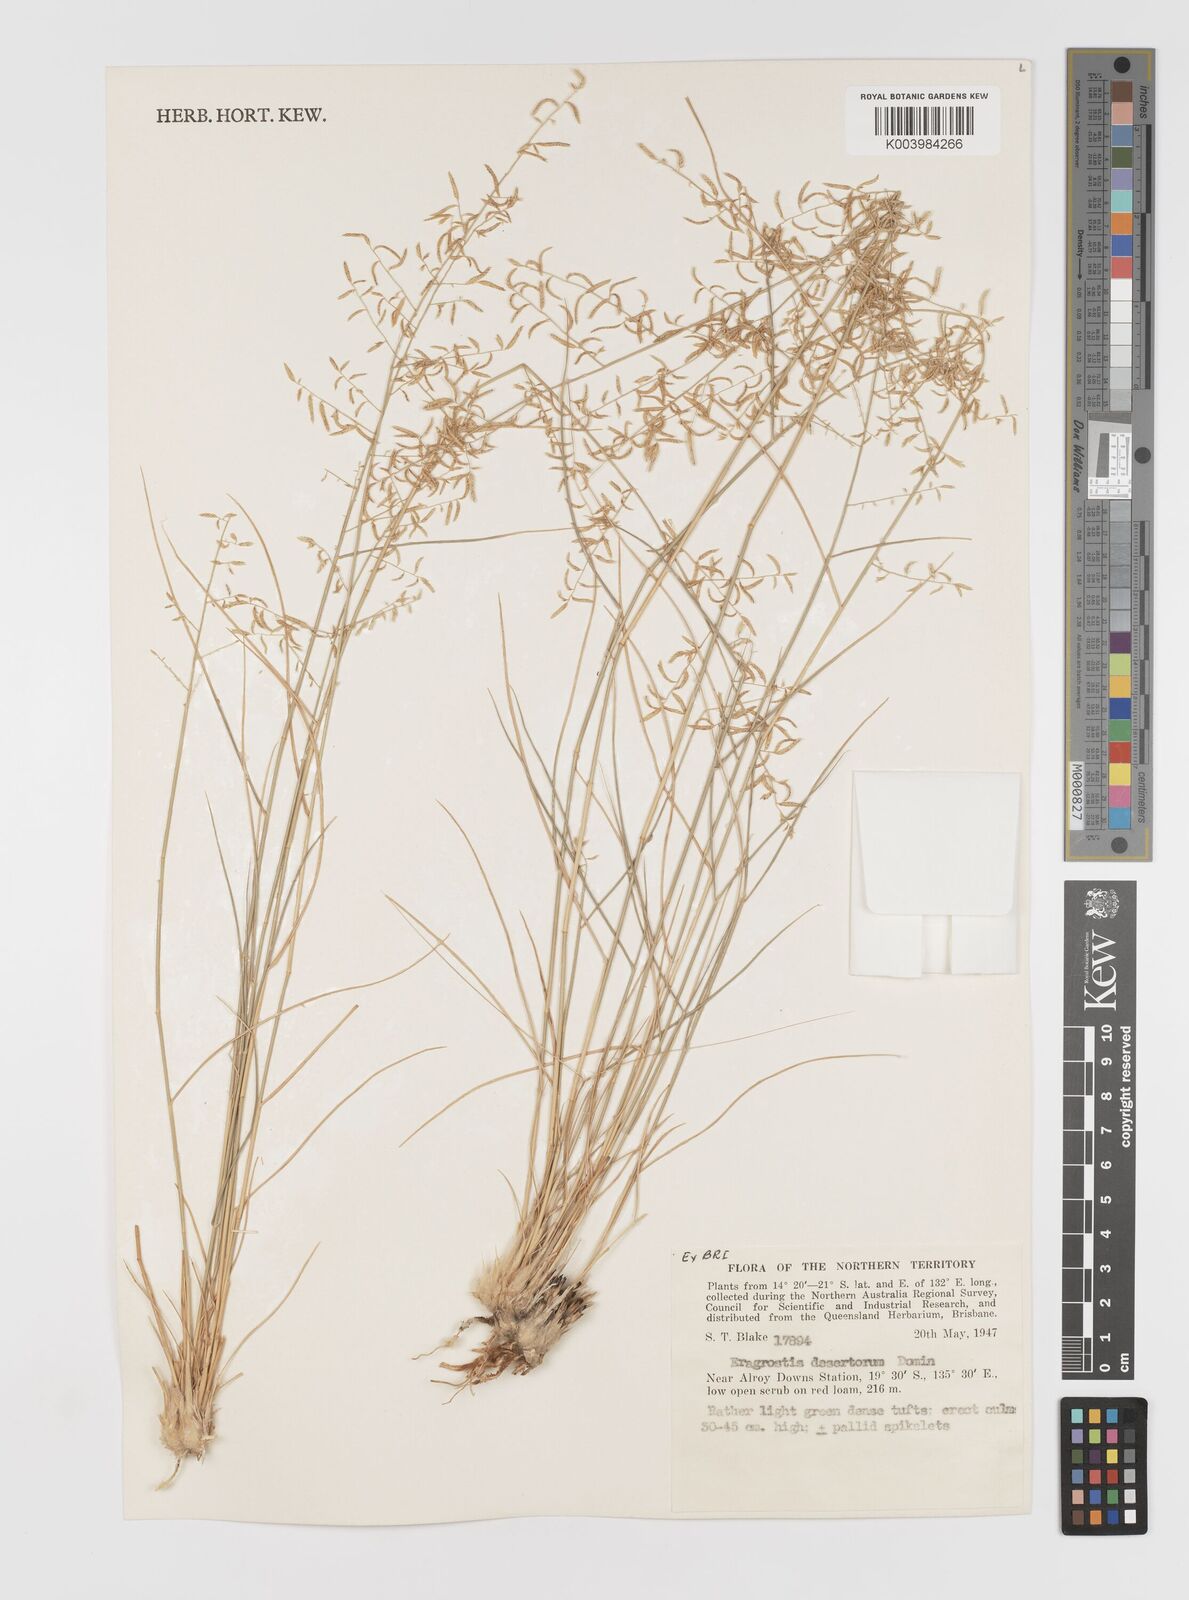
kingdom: Plantae
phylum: Tracheophyta
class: Liliopsida
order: Poales
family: Poaceae
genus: Eragrostis
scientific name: Eragrostis desertorum
